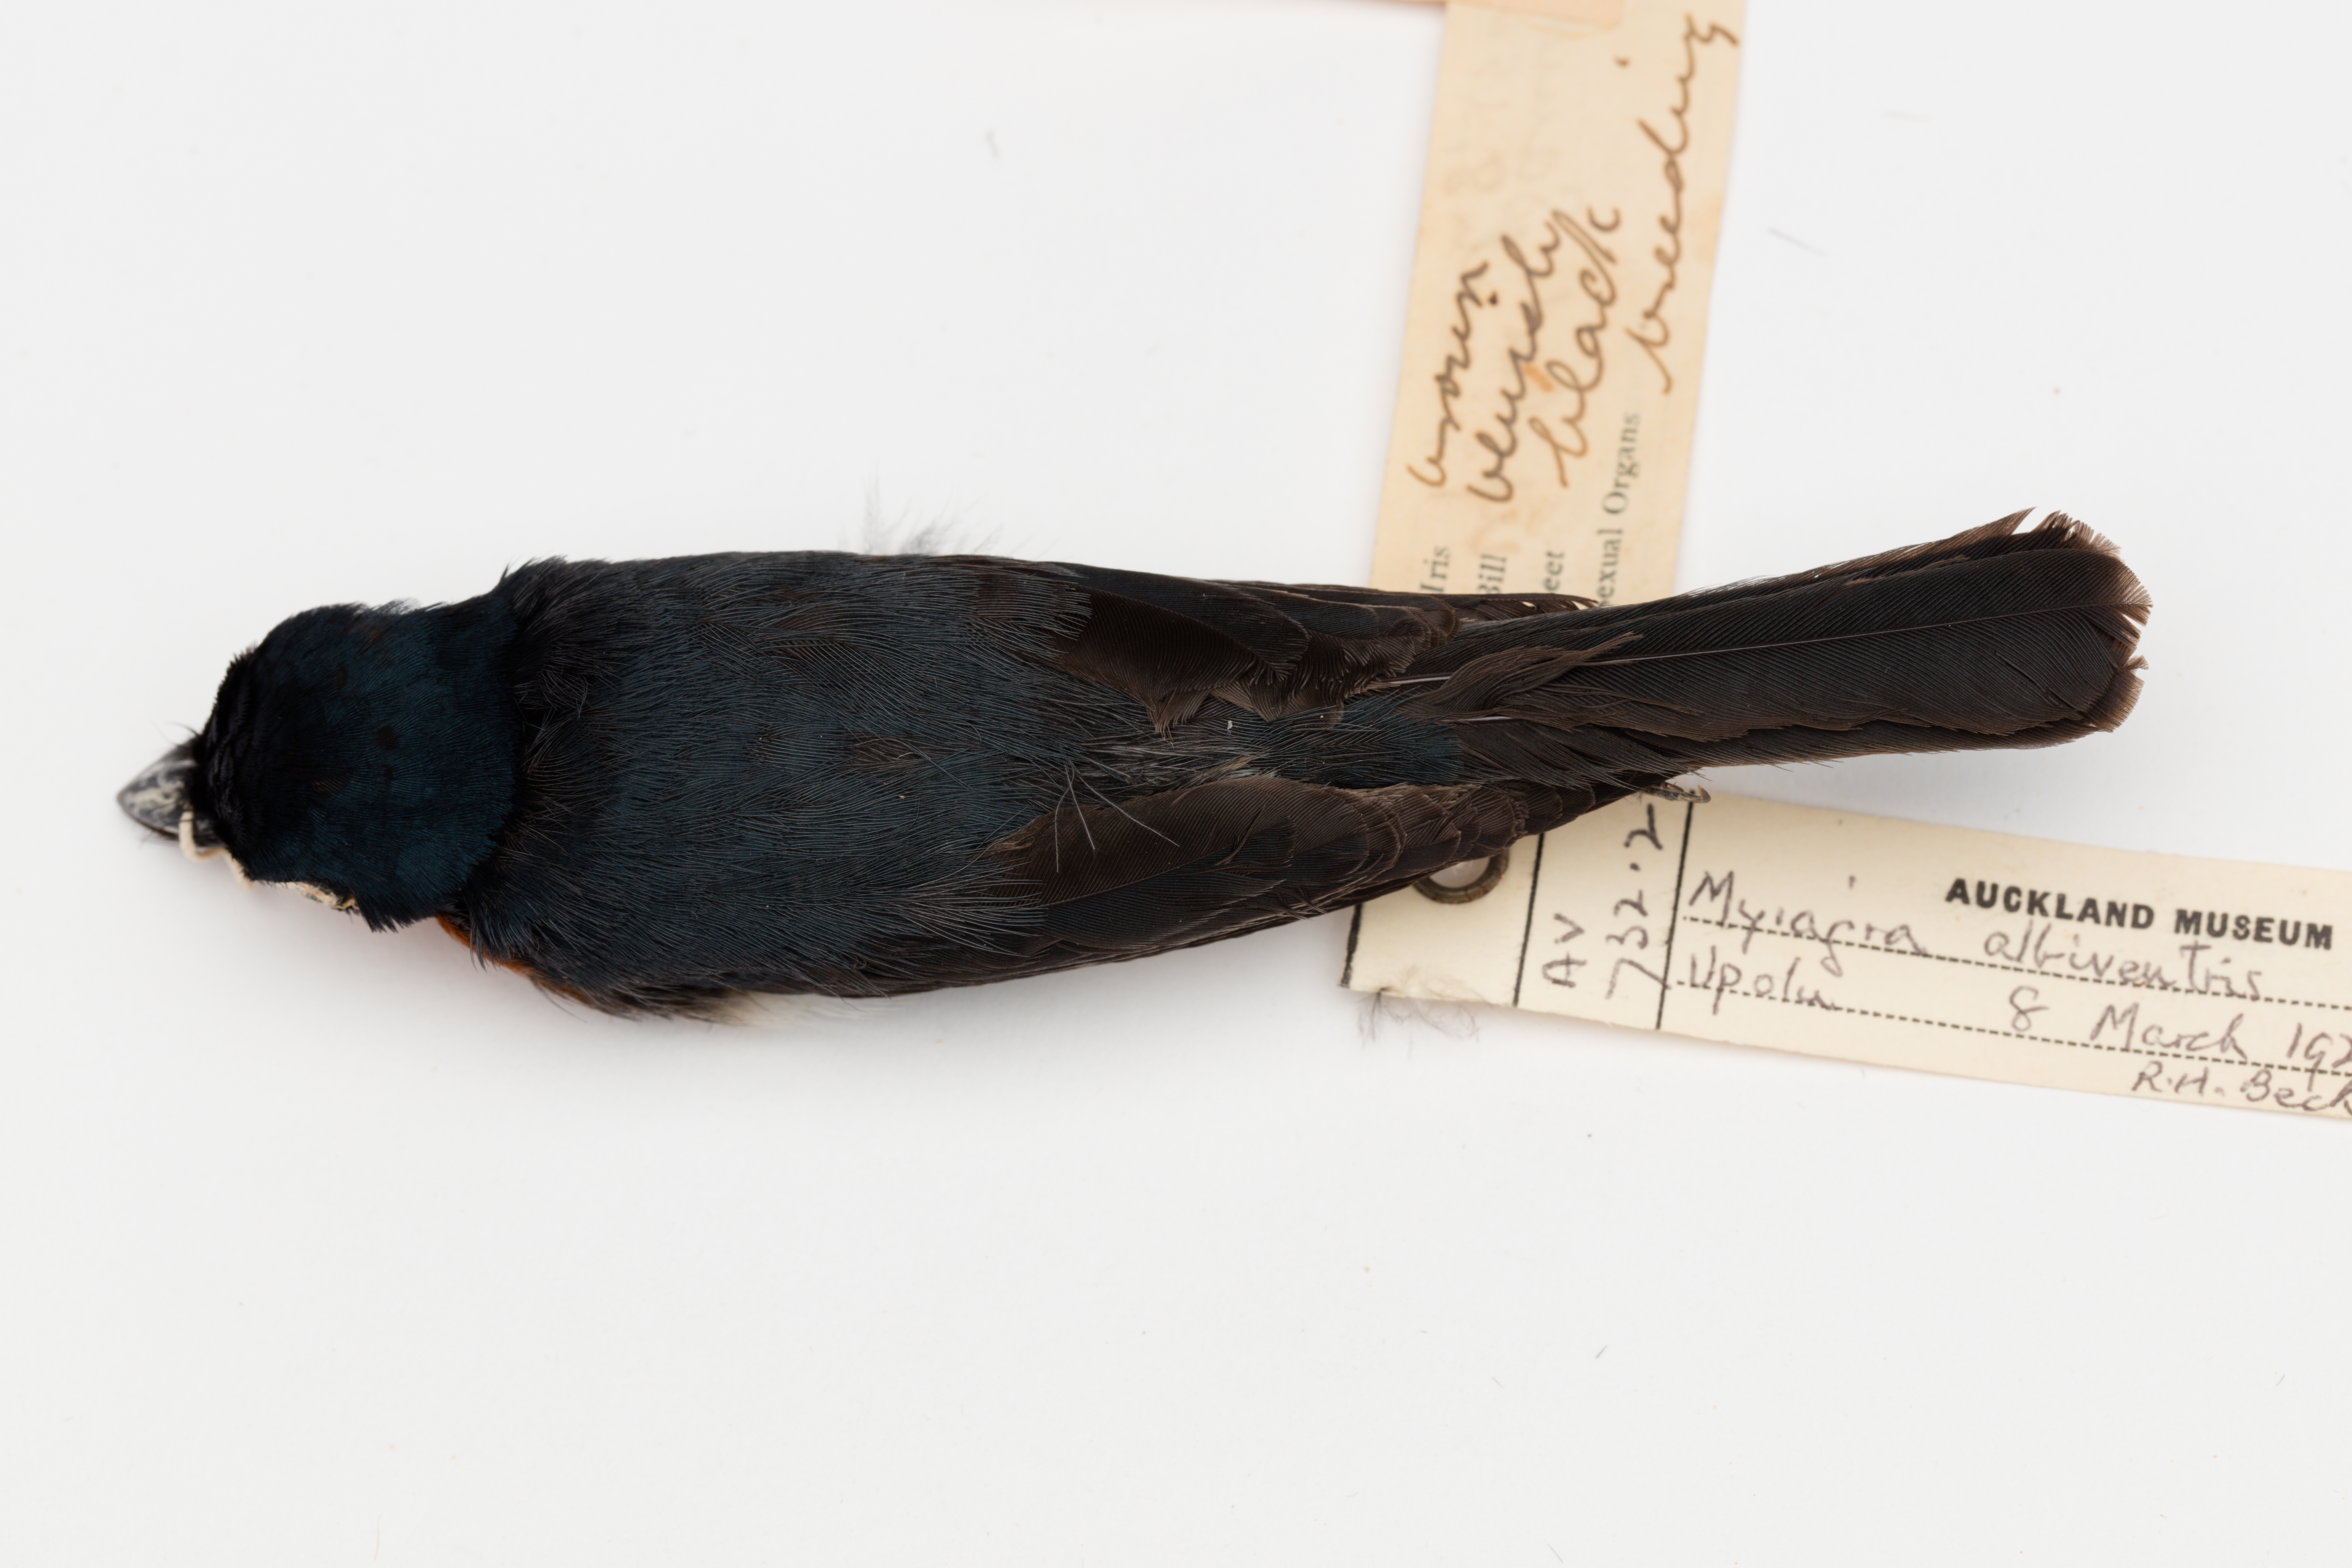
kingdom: Animalia
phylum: Chordata
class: Aves
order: Passeriformes
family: Monarchidae
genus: Myiagra
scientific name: Myiagra albiventris
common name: Samoan flycatcher
